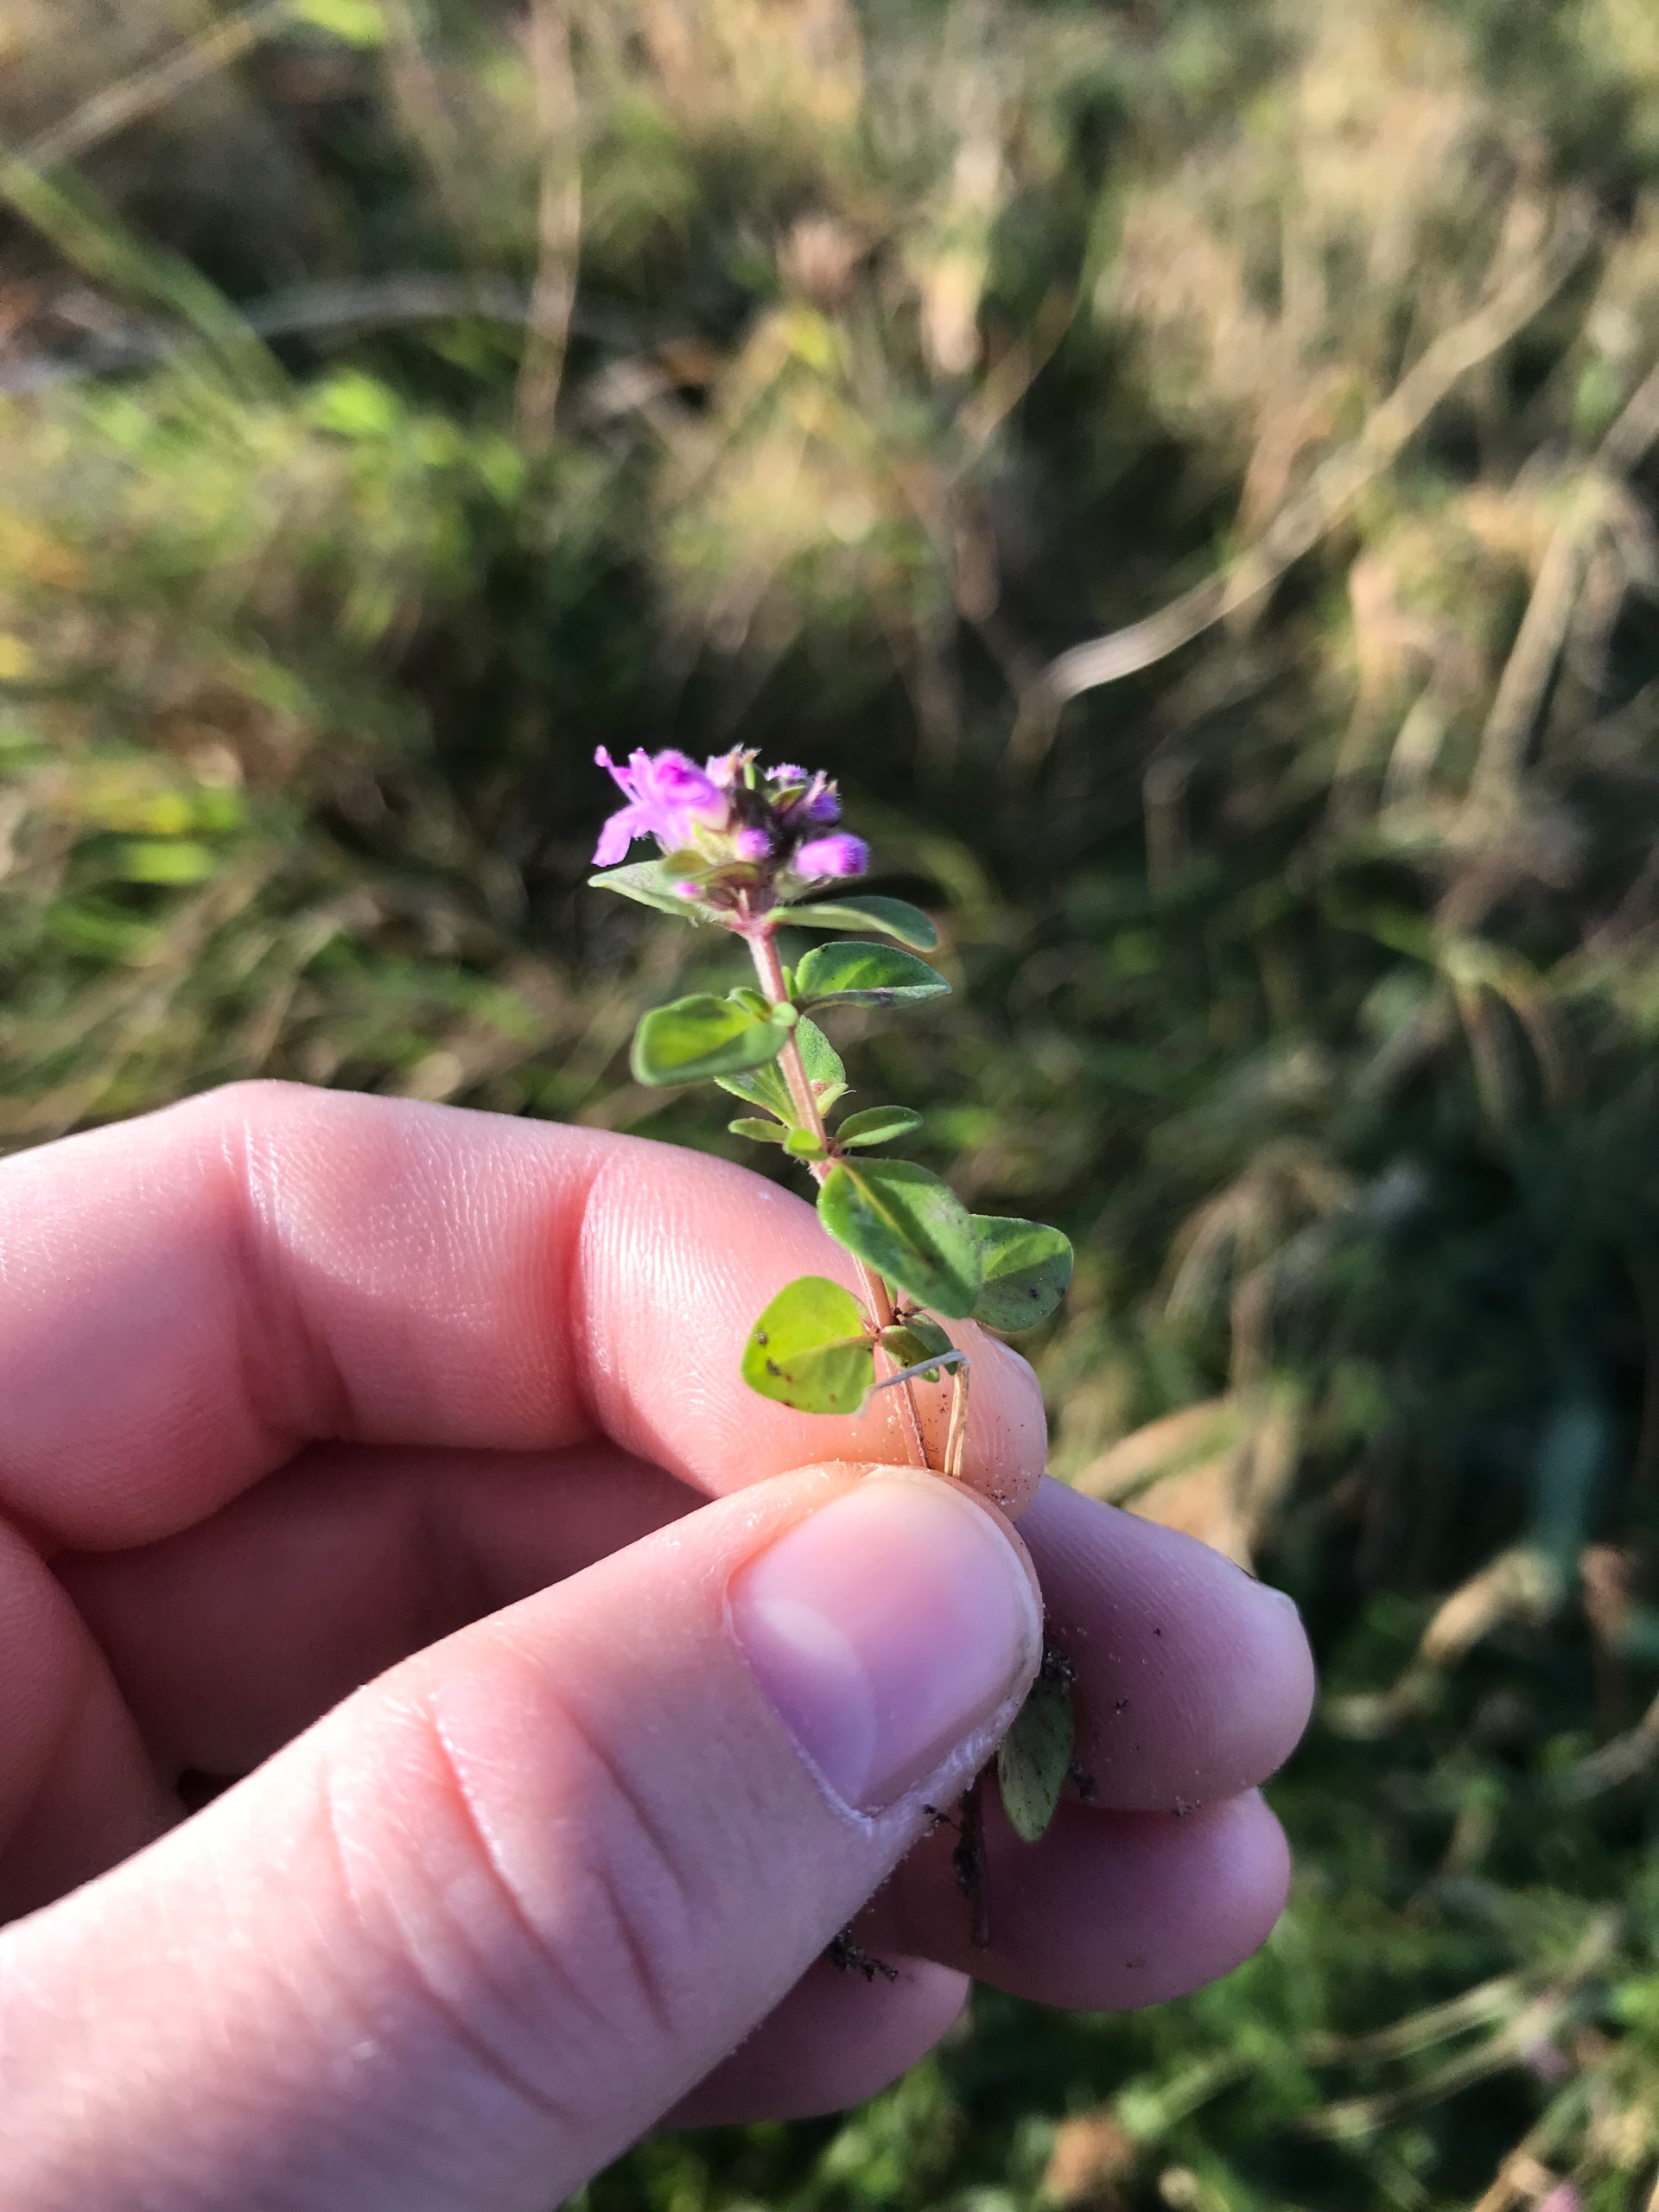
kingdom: Plantae
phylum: Tracheophyta
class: Magnoliopsida
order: Lamiales
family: Lamiaceae
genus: Thymus
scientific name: Thymus pulegioides
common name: Bredbladet timian
